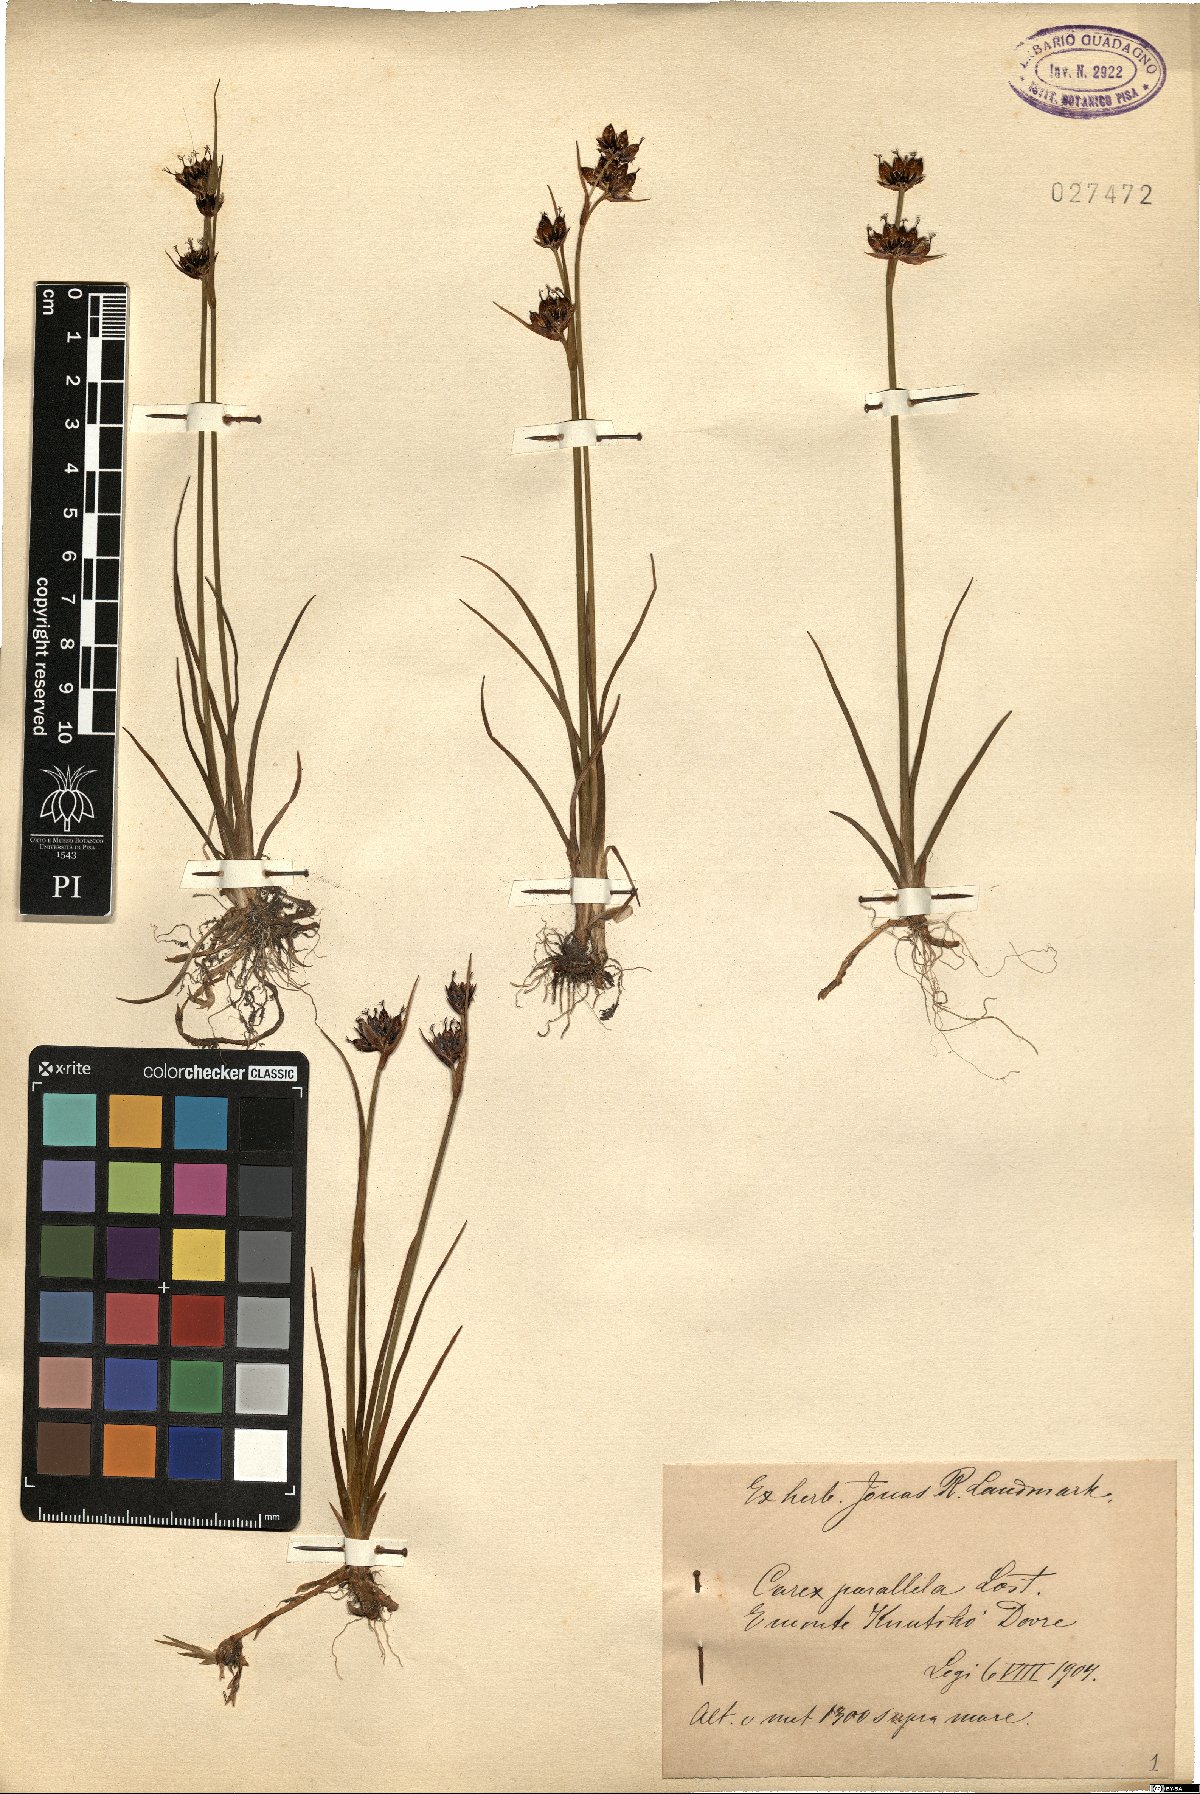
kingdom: Plantae
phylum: Tracheophyta
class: Liliopsida
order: Poales
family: Cyperaceae
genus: Carex
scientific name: Carex parallela
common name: Parallel sedge
